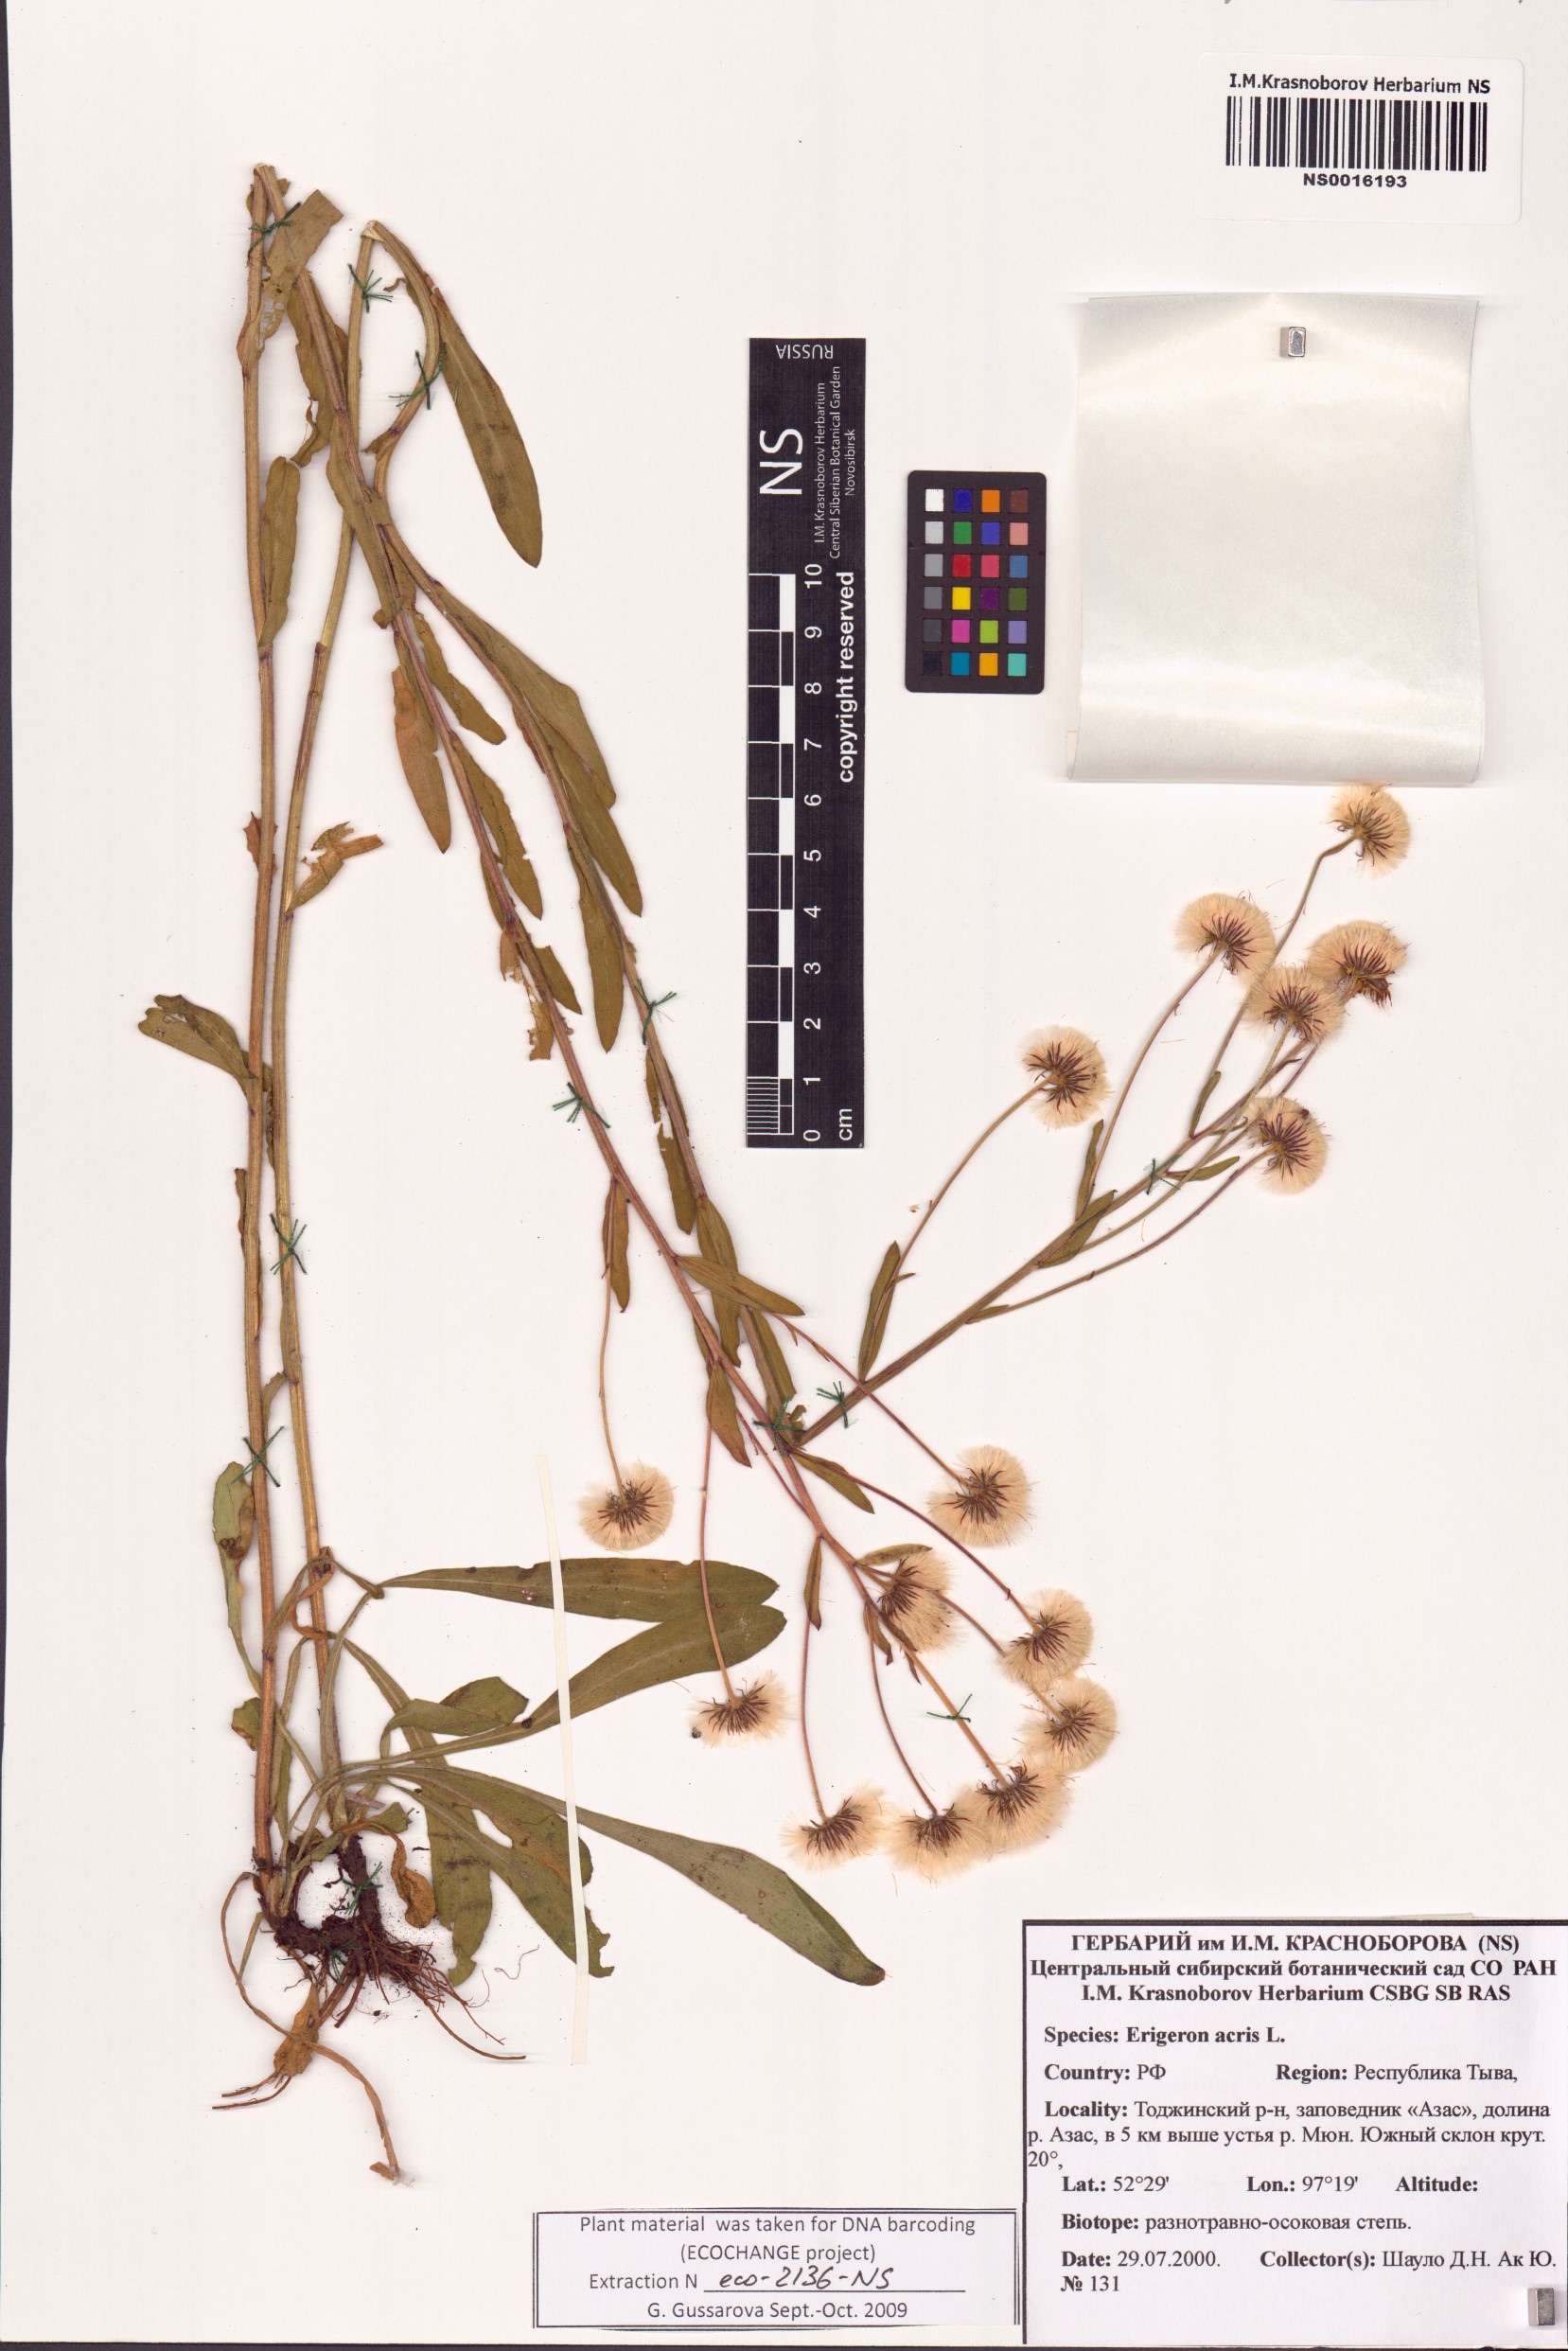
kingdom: Plantae
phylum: Tracheophyta
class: Magnoliopsida
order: Asterales
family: Asteraceae
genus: Erigeron
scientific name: Erigeron acris
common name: Blue fleabane
